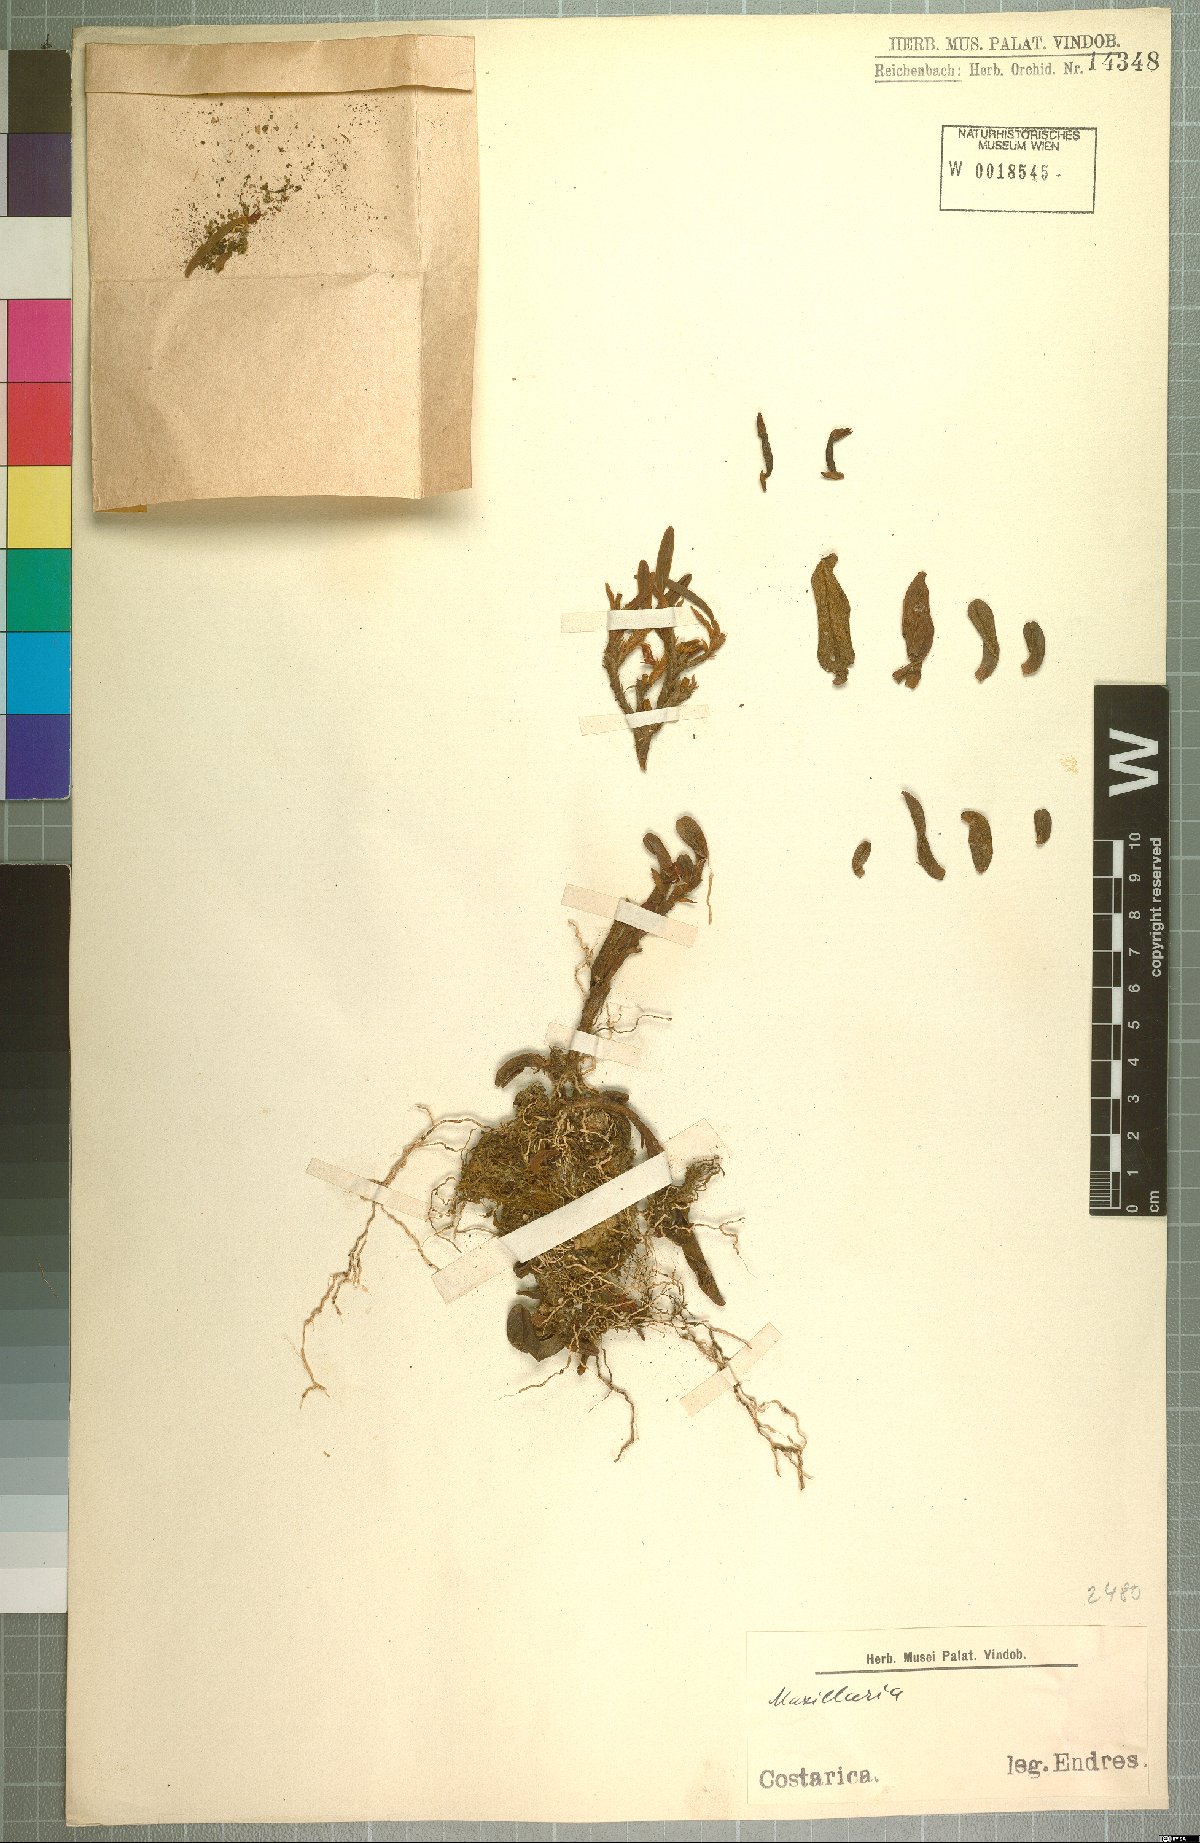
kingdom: Plantae
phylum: Tracheophyta
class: Liliopsida
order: Asparagales
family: Orchidaceae
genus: Maxillaria
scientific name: Maxillaria
